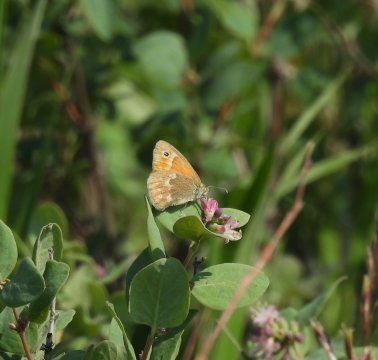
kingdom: Animalia
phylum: Arthropoda
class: Insecta
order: Lepidoptera
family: Nymphalidae
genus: Coenonympha
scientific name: Coenonympha tullia
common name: Large Heath
